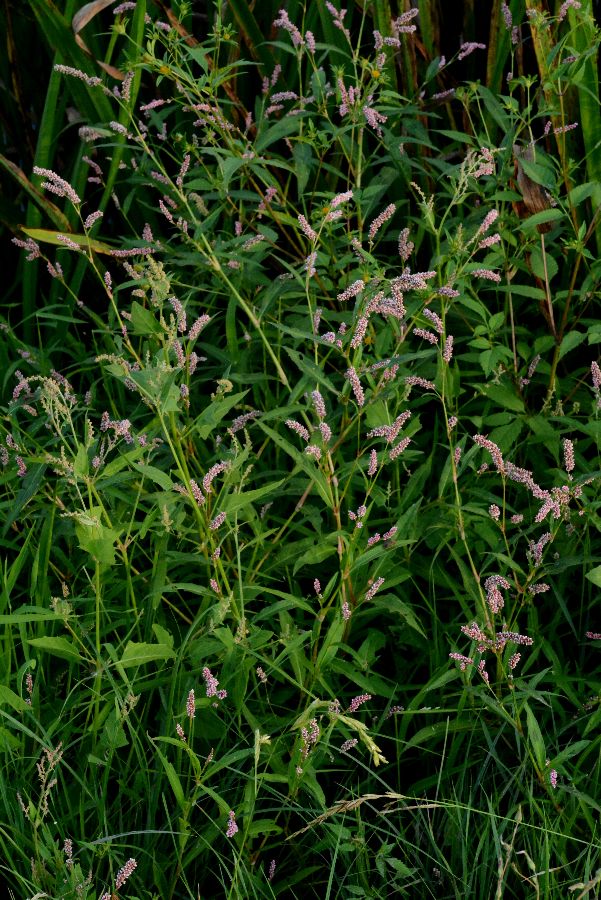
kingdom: Plantae
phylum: Tracheophyta
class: Magnoliopsida
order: Caryophyllales
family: Polygonaceae
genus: Persicaria
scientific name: Persicaria
